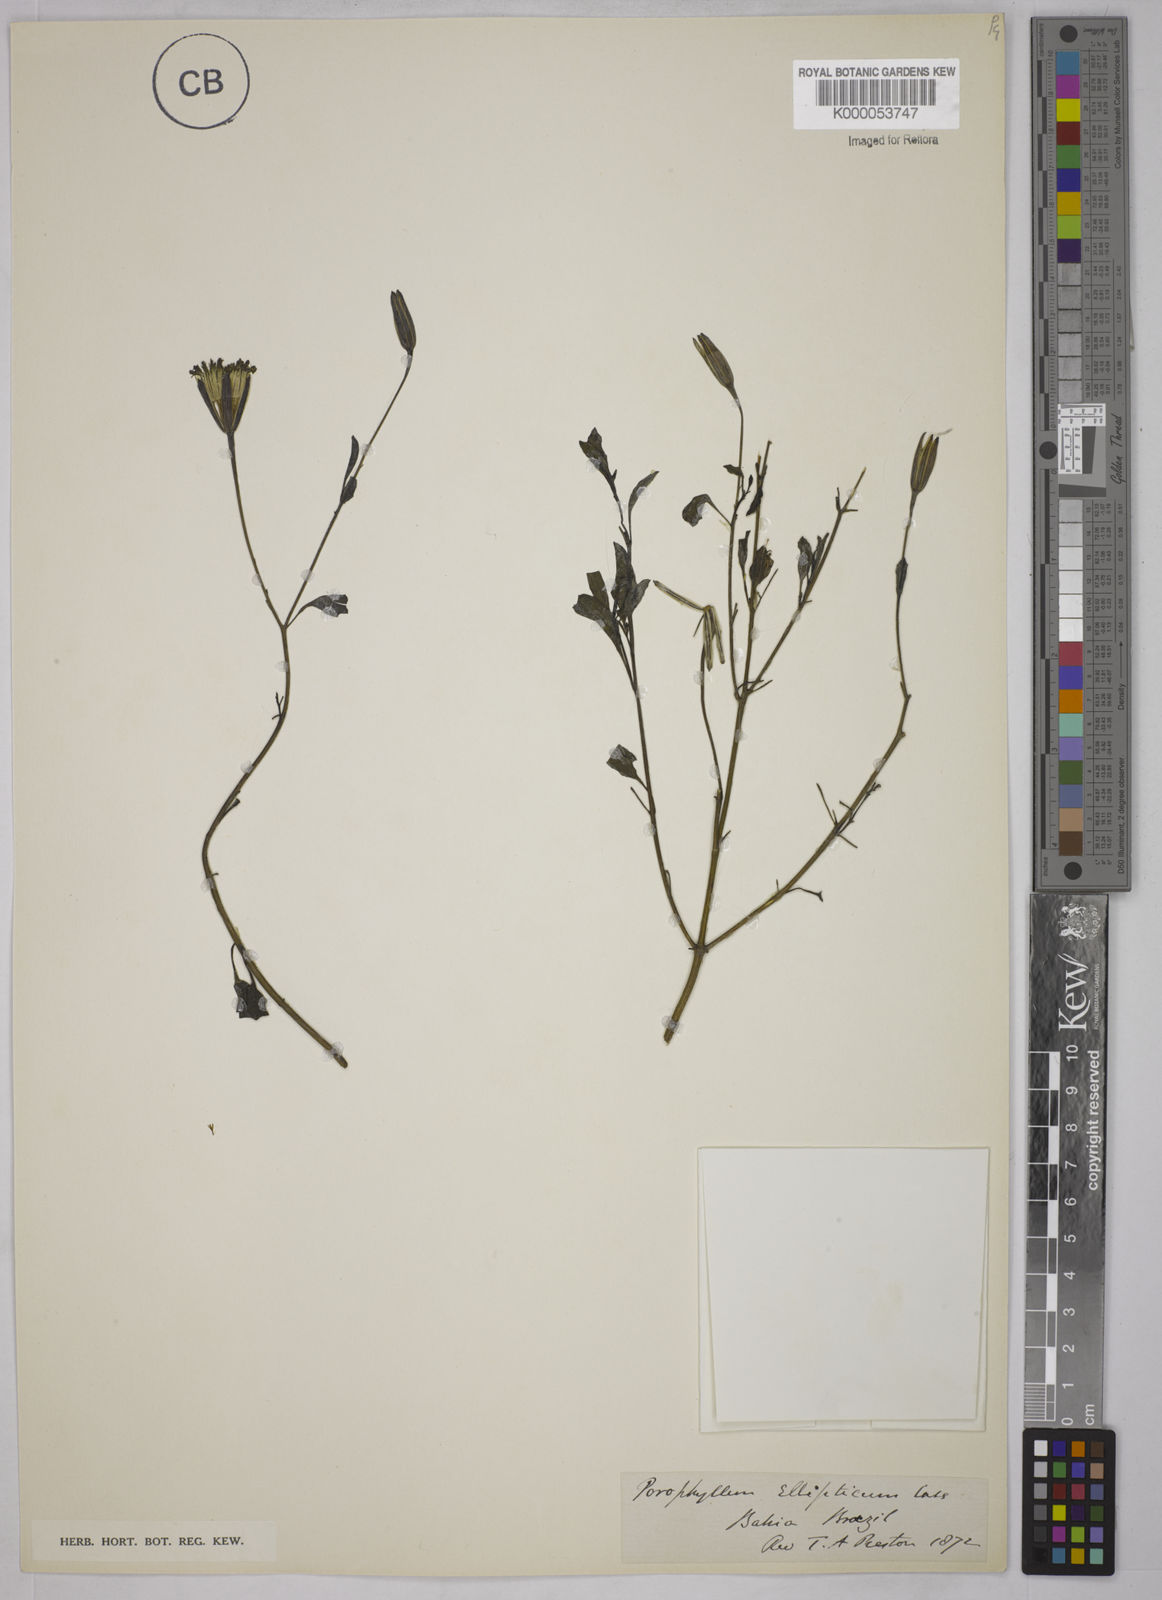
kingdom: Plantae
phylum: Tracheophyta
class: Magnoliopsida
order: Asterales
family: Asteraceae
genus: Porophyllum
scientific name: Porophyllum ruderale
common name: Yerba porosa
